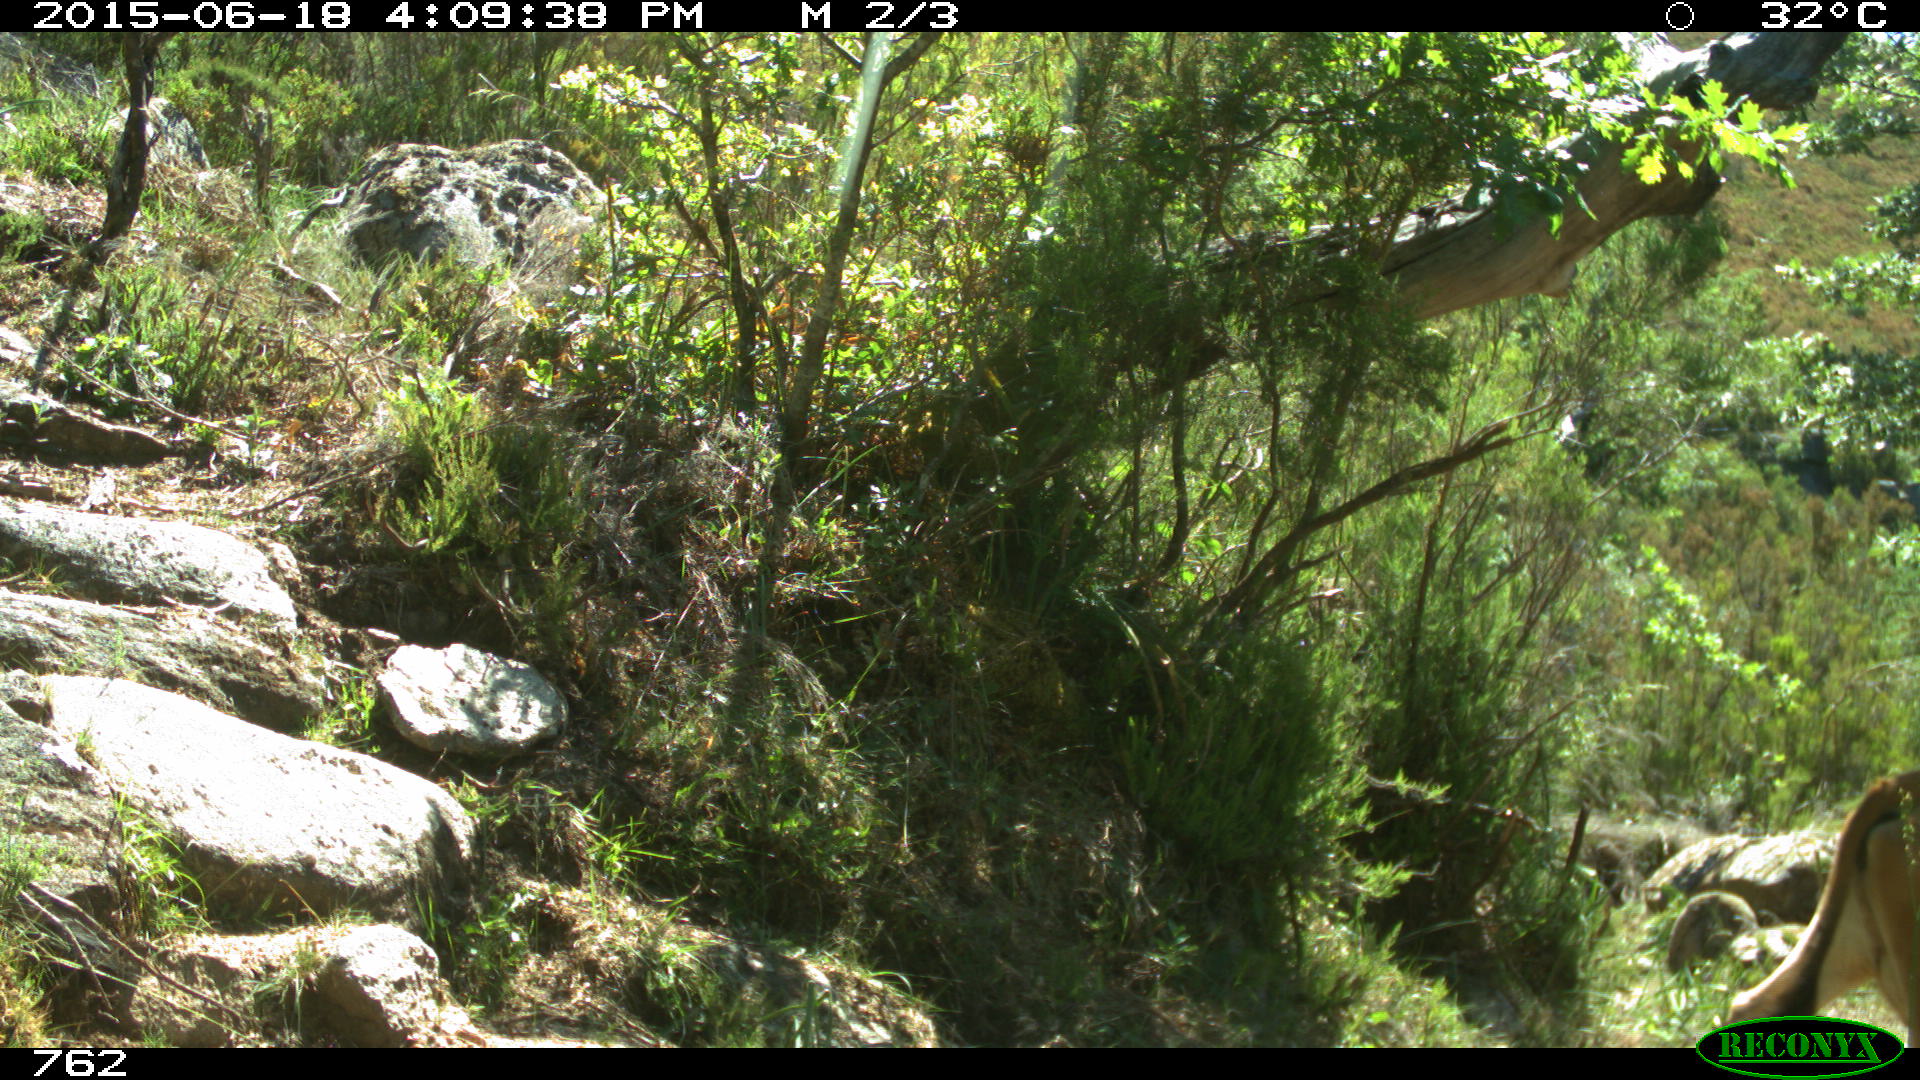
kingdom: Animalia
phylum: Chordata
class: Mammalia
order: Artiodactyla
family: Bovidae
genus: Bos
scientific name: Bos taurus
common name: Domesticated cattle
